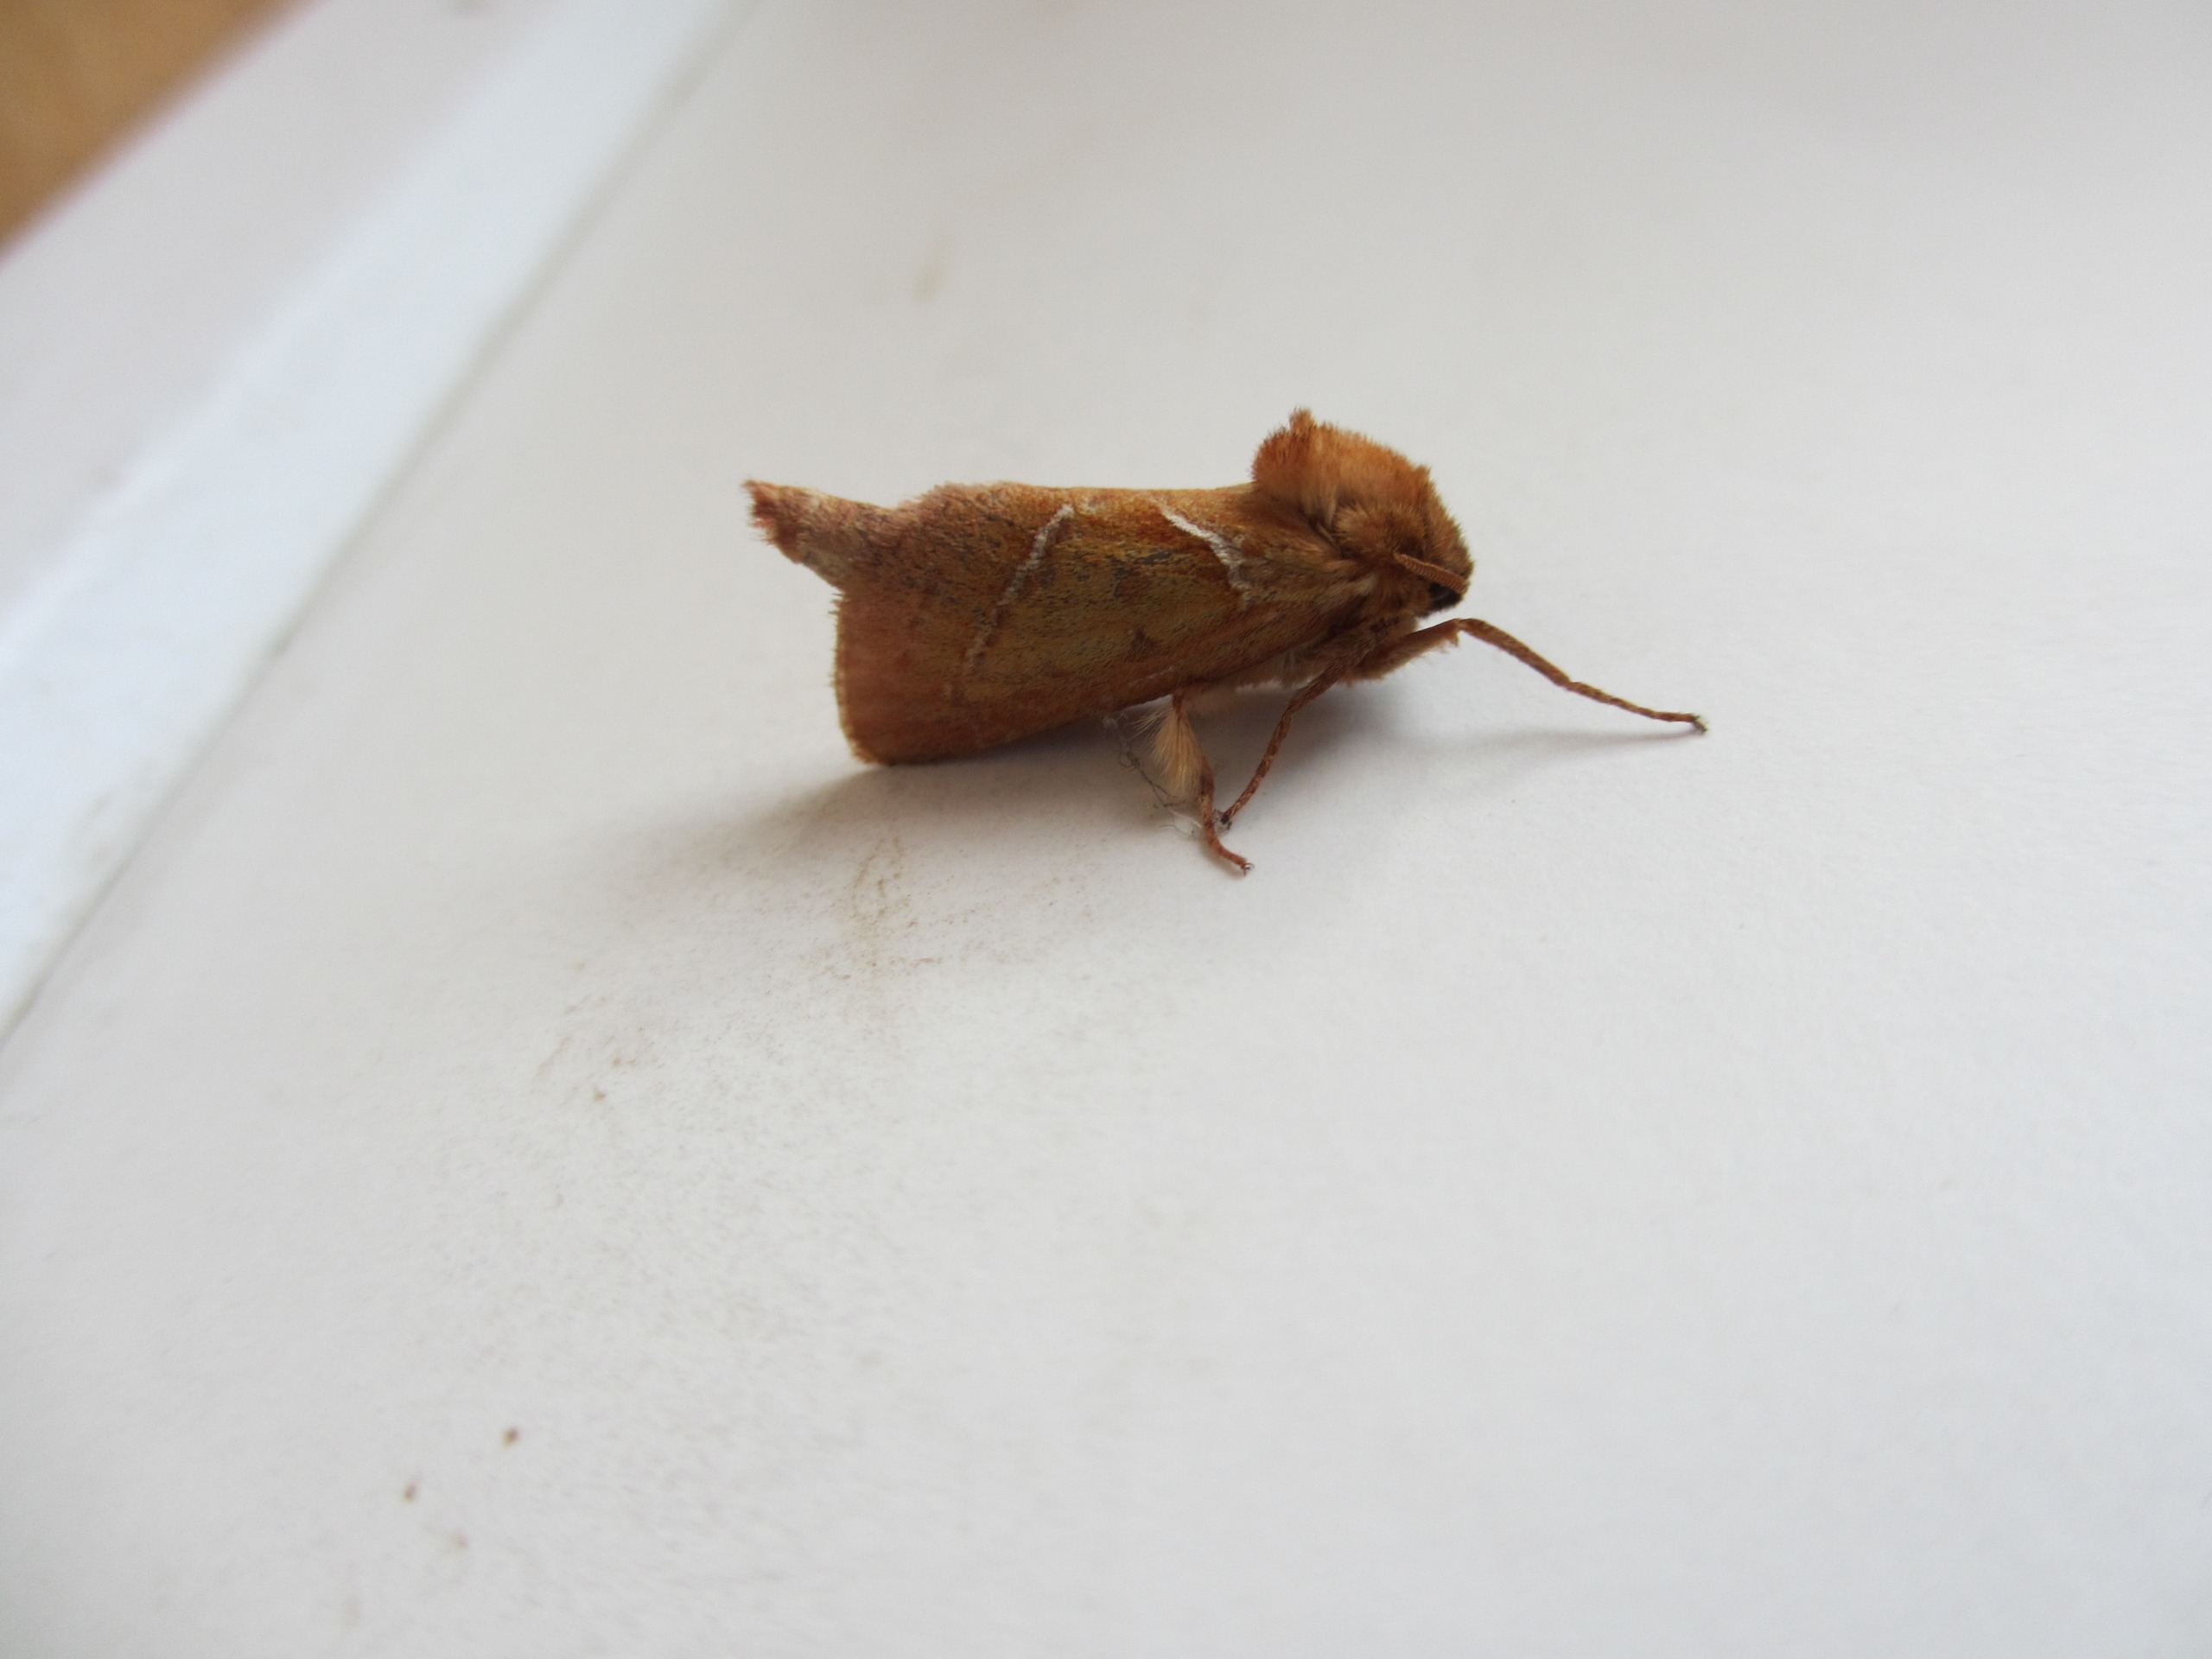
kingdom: Animalia
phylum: Arthropoda
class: Insecta
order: Lepidoptera
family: Hepialidae
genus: Triodia
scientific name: Triodia sylvina
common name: Skræpperodæder
